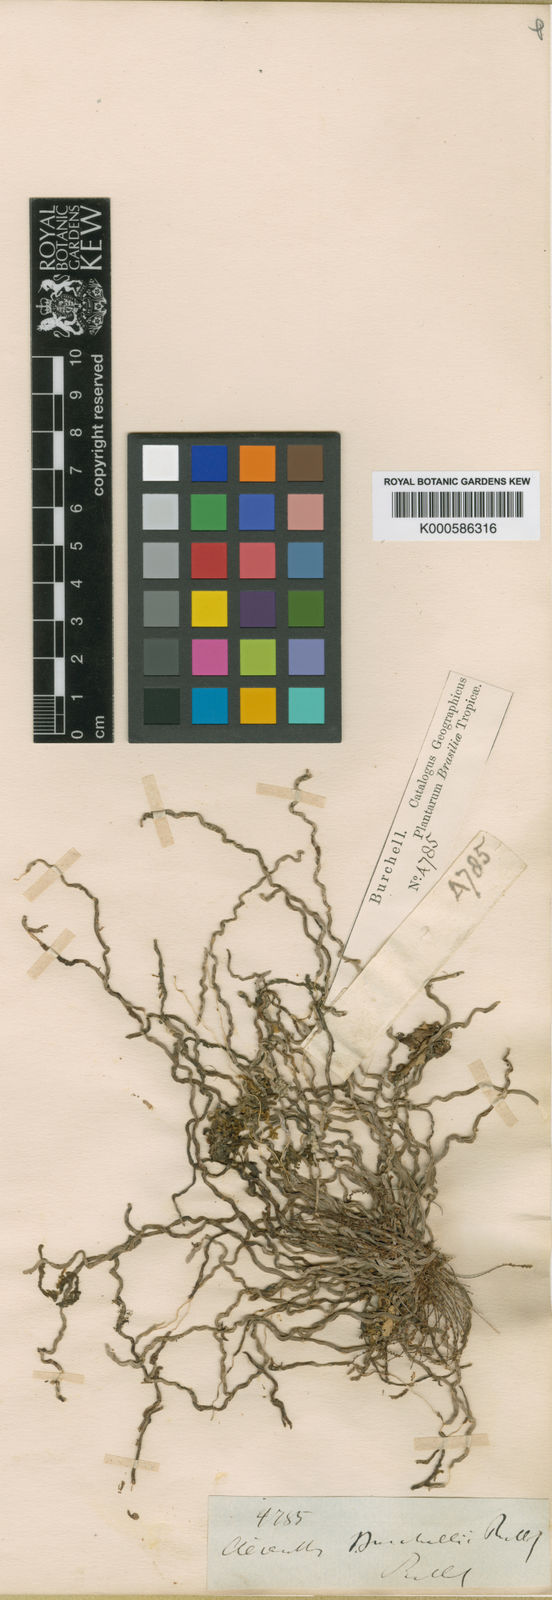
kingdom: Plantae
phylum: Tracheophyta
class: Liliopsida
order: Asparagales
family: Orchidaceae
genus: Campylocentrum
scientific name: Campylocentrum grisebachii
